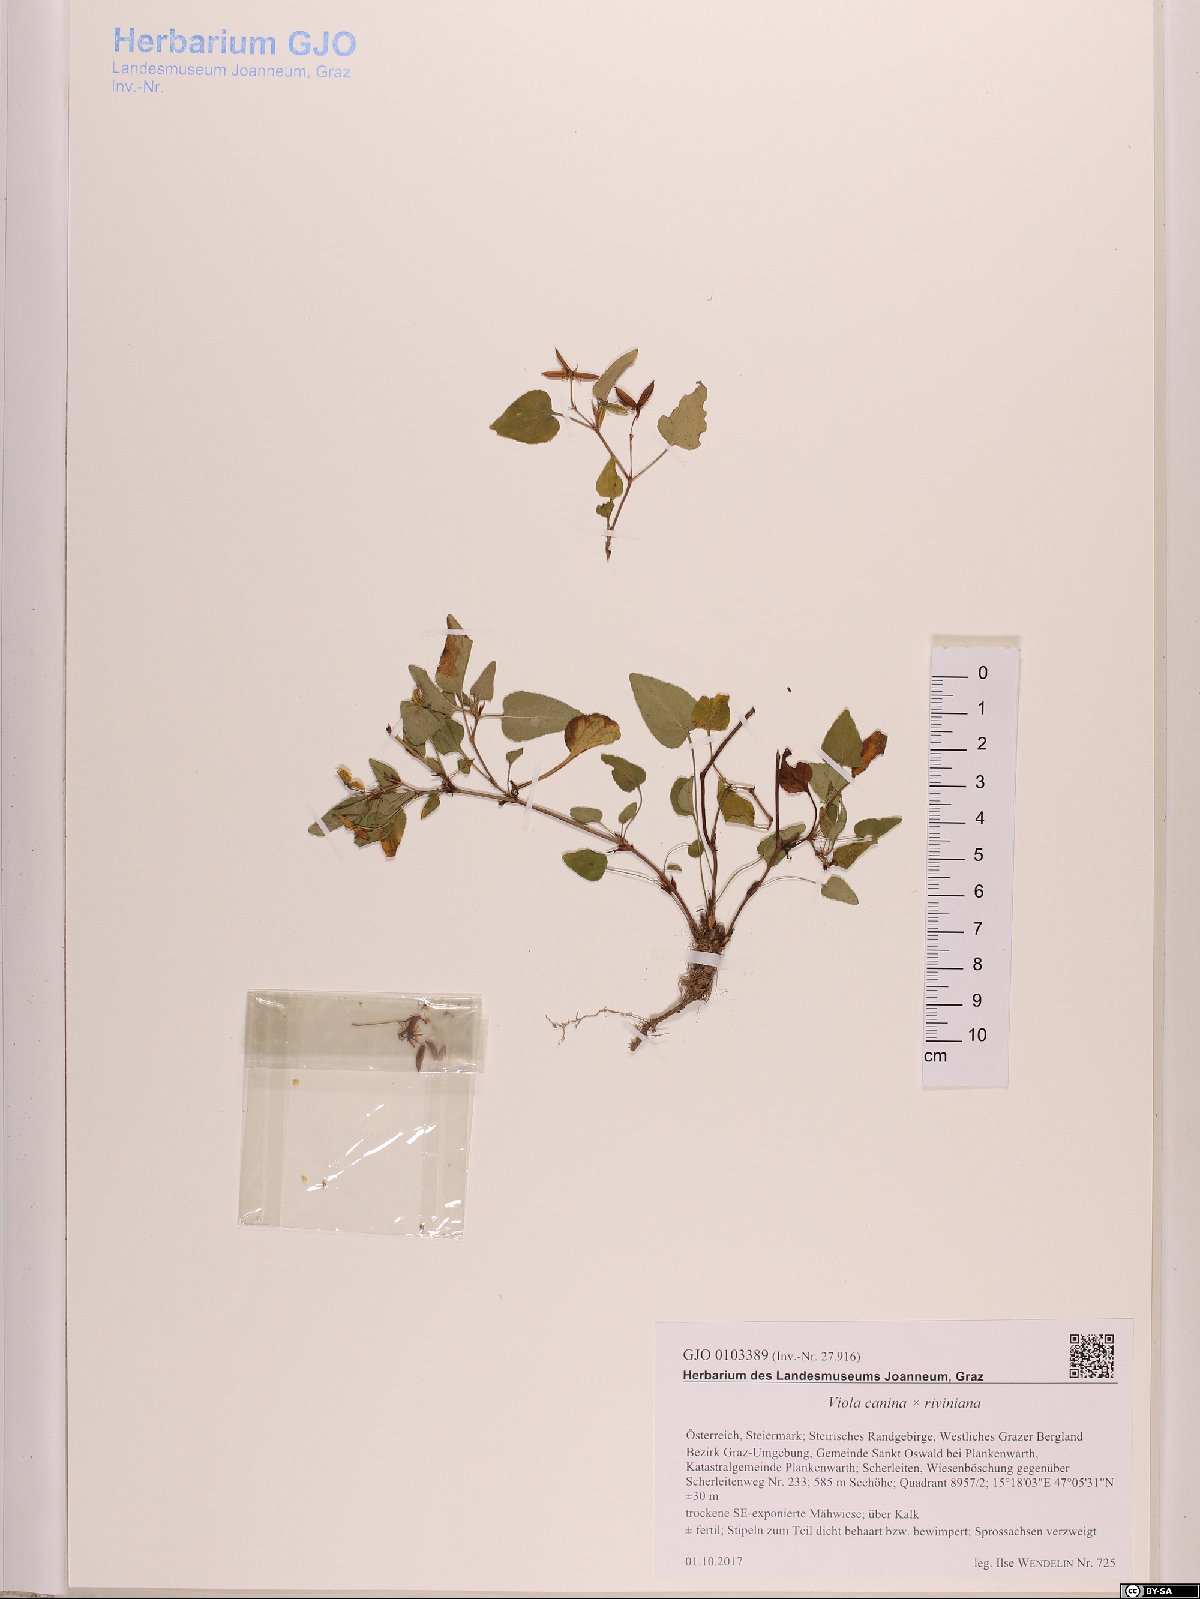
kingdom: Plantae
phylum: Tracheophyta
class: Magnoliopsida
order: Malpighiales
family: Violaceae
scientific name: Violaceae
